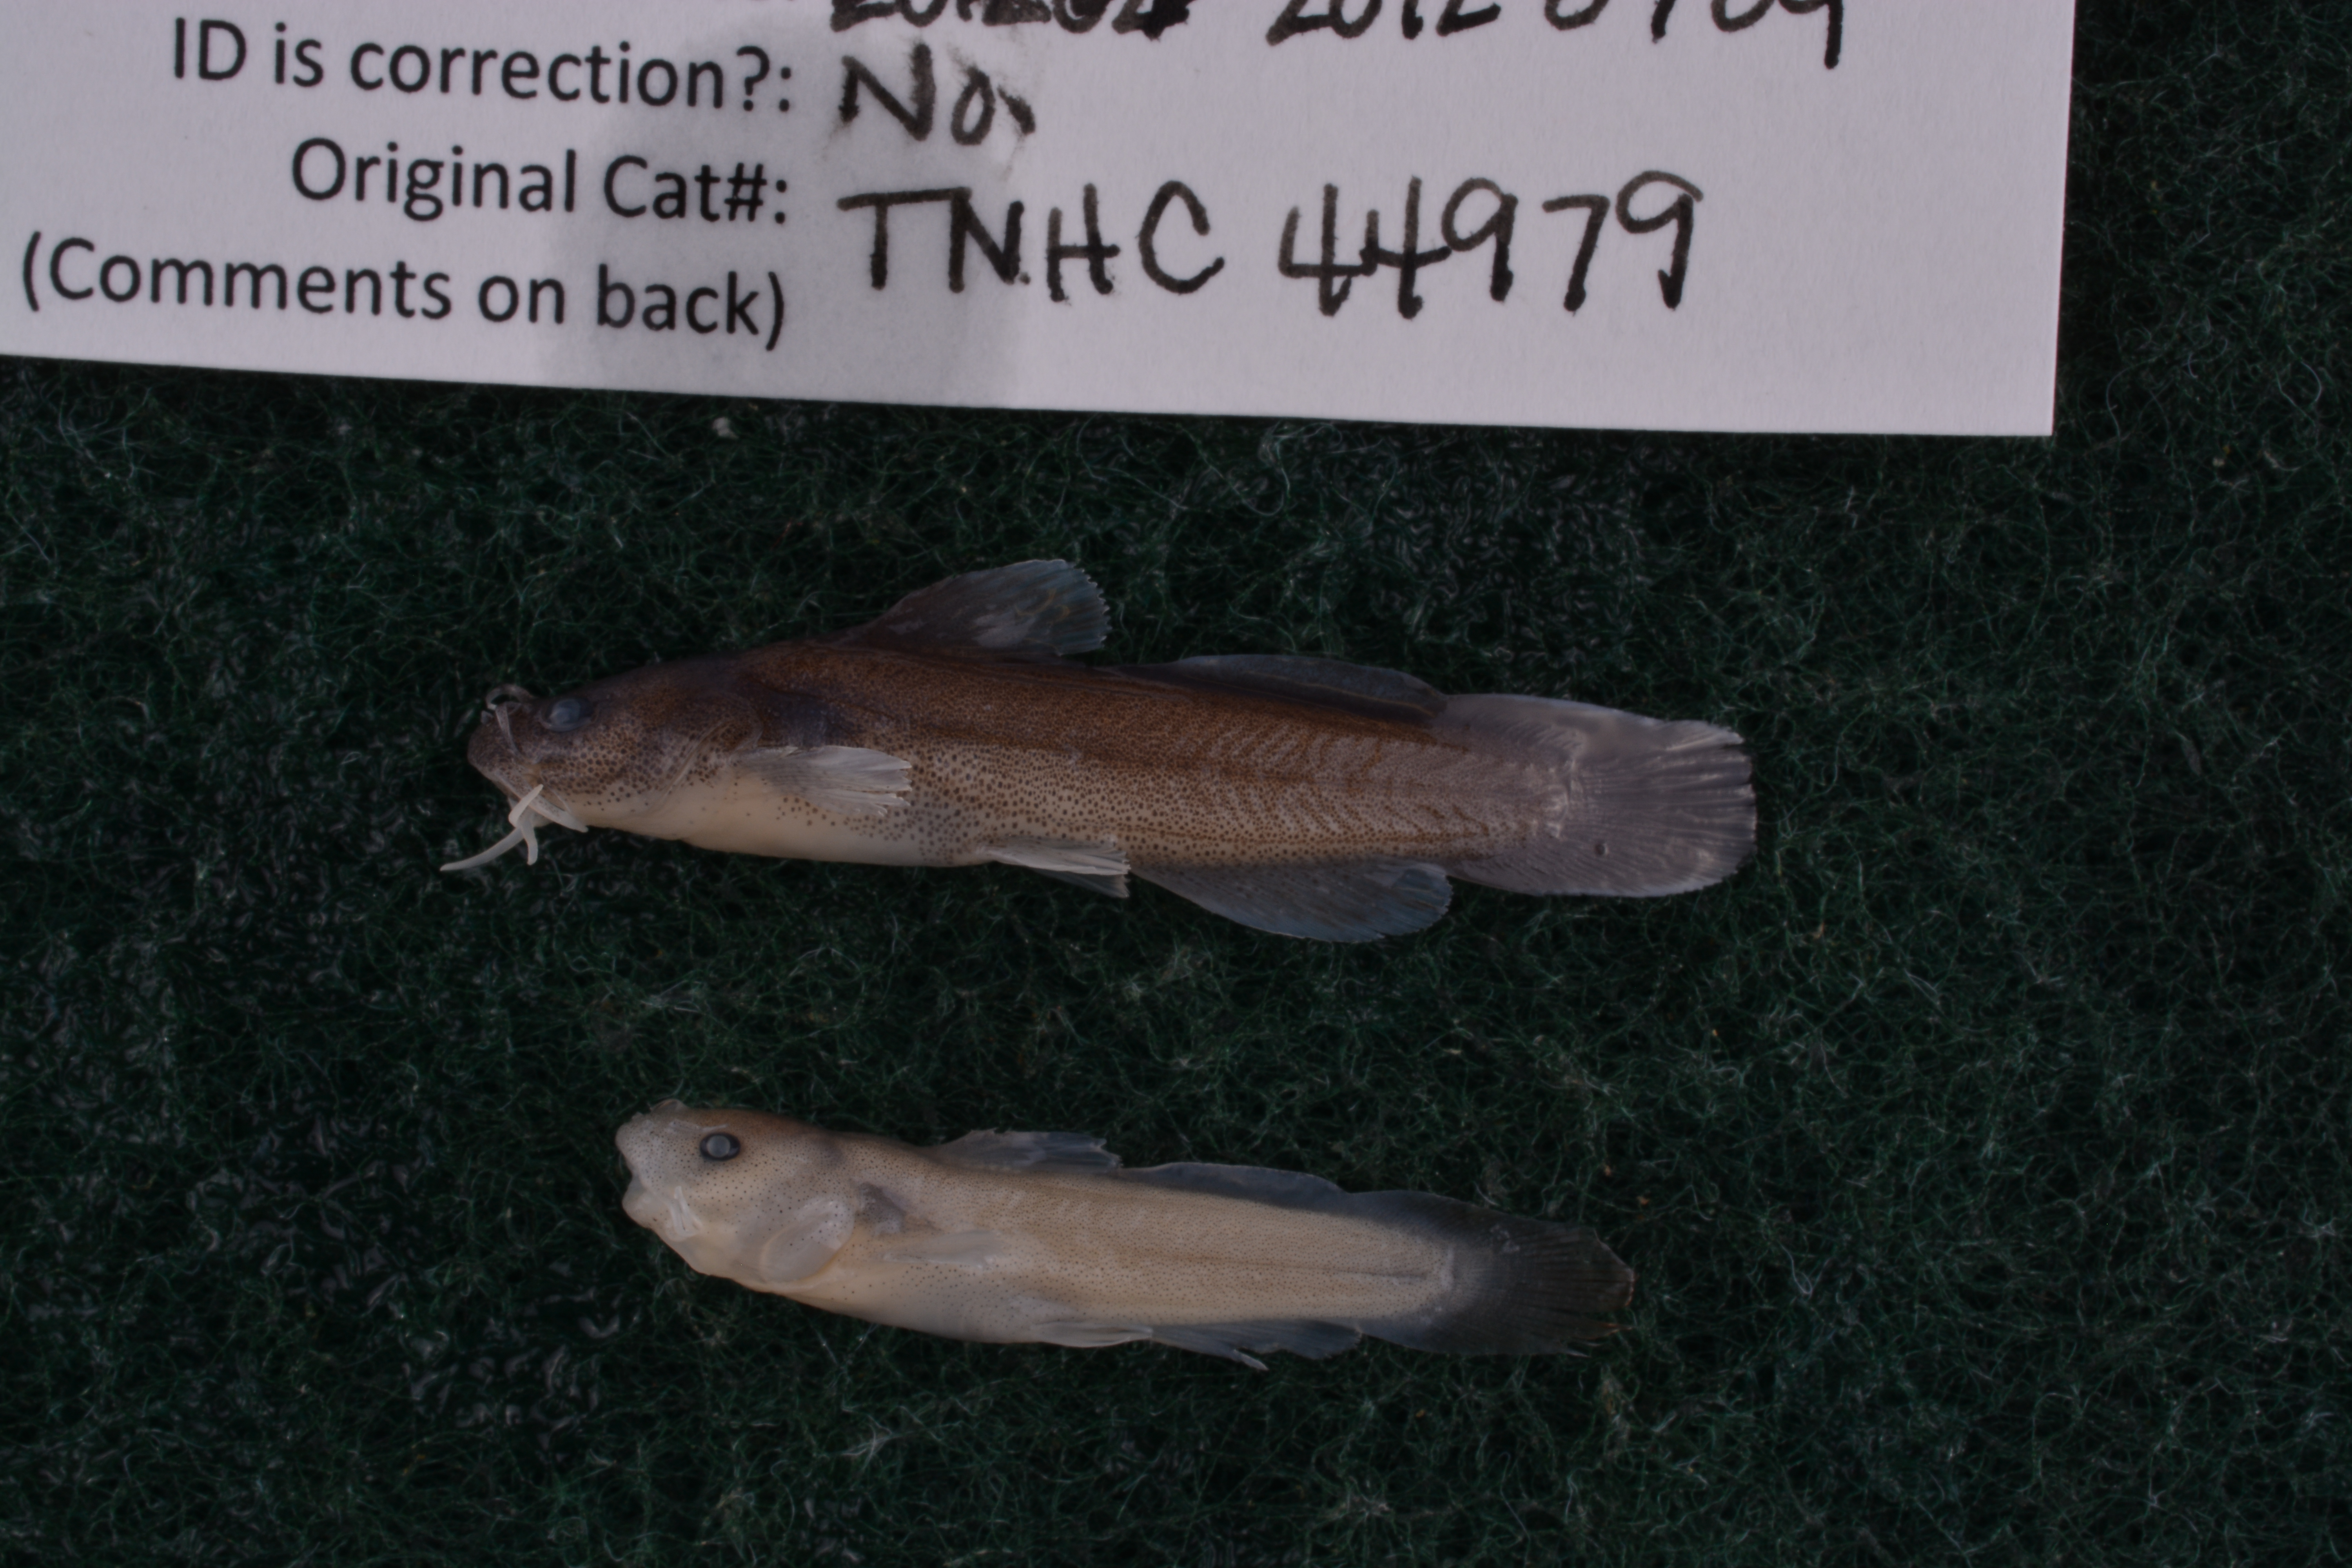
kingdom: Animalia
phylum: Chordata
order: Siluriformes
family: Ictaluridae
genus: Noturus
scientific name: Noturus nocturnus
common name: Freckled madtom
